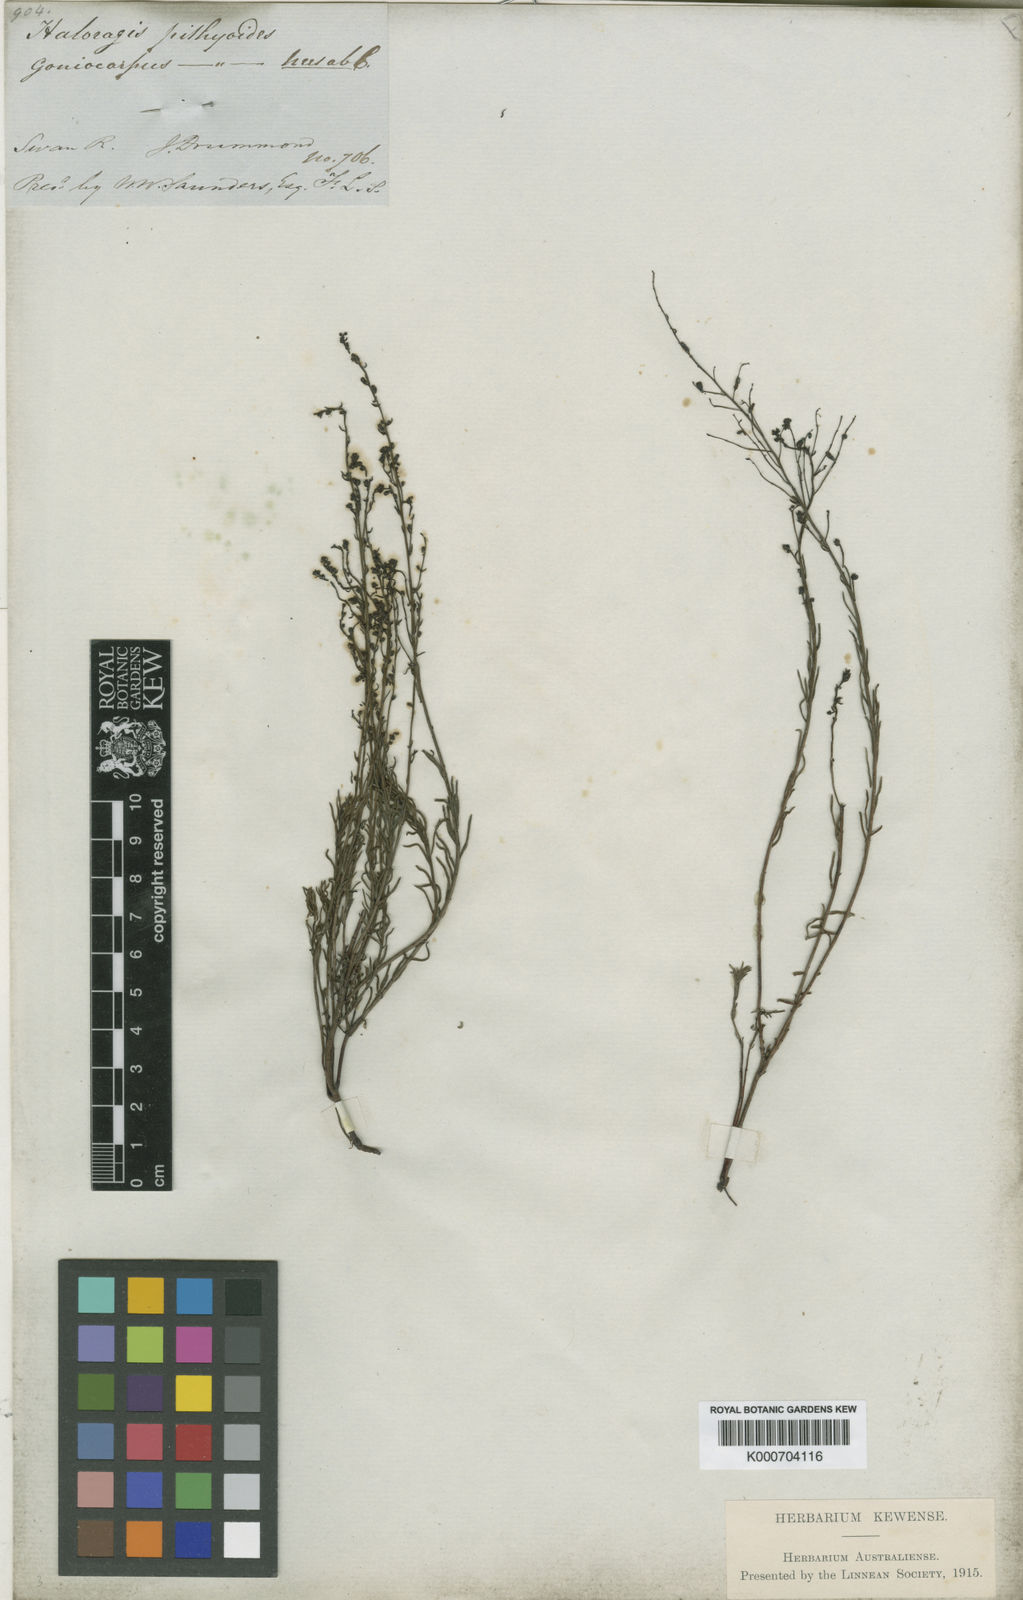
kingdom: Plantae
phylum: Tracheophyta
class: Magnoliopsida
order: Saxifragales
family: Haloragaceae
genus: Gonocarpus
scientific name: Gonocarpus pithyoides
